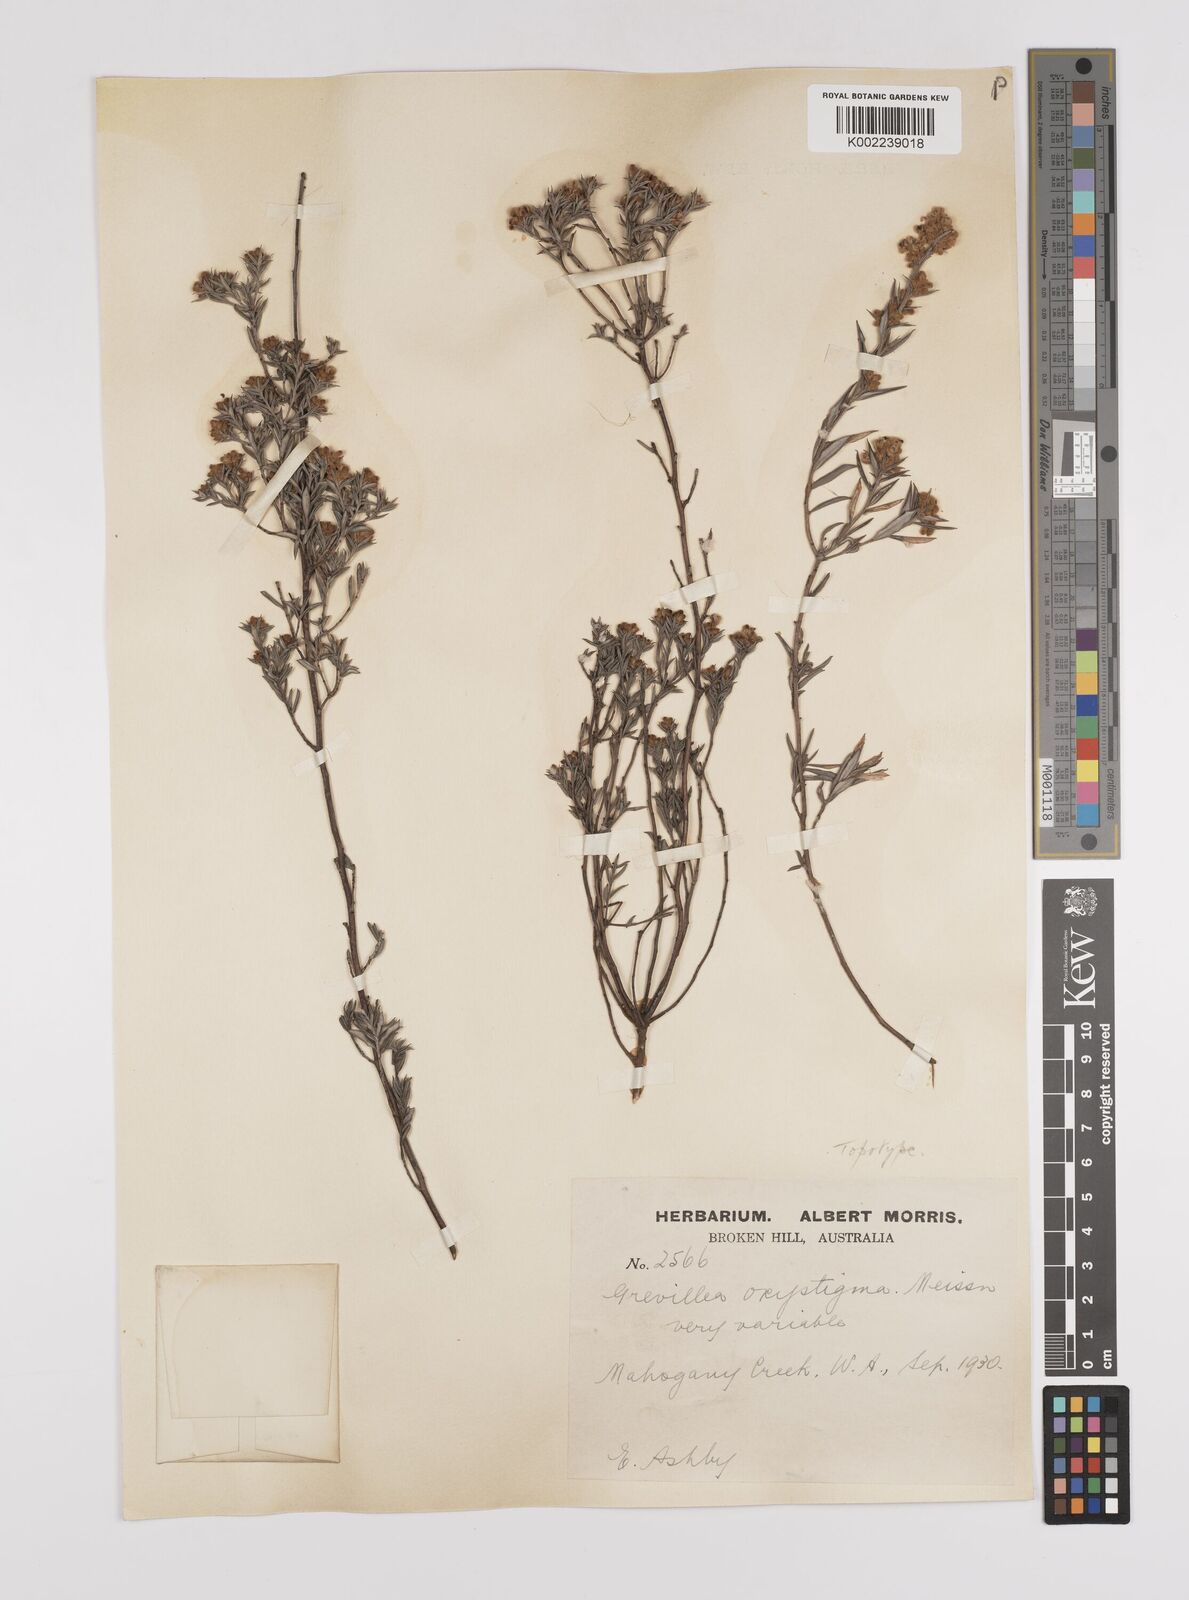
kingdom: Plantae
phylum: Tracheophyta
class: Magnoliopsida
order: Proteales
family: Proteaceae
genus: Grevillea
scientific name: Grevillea pilulifera
